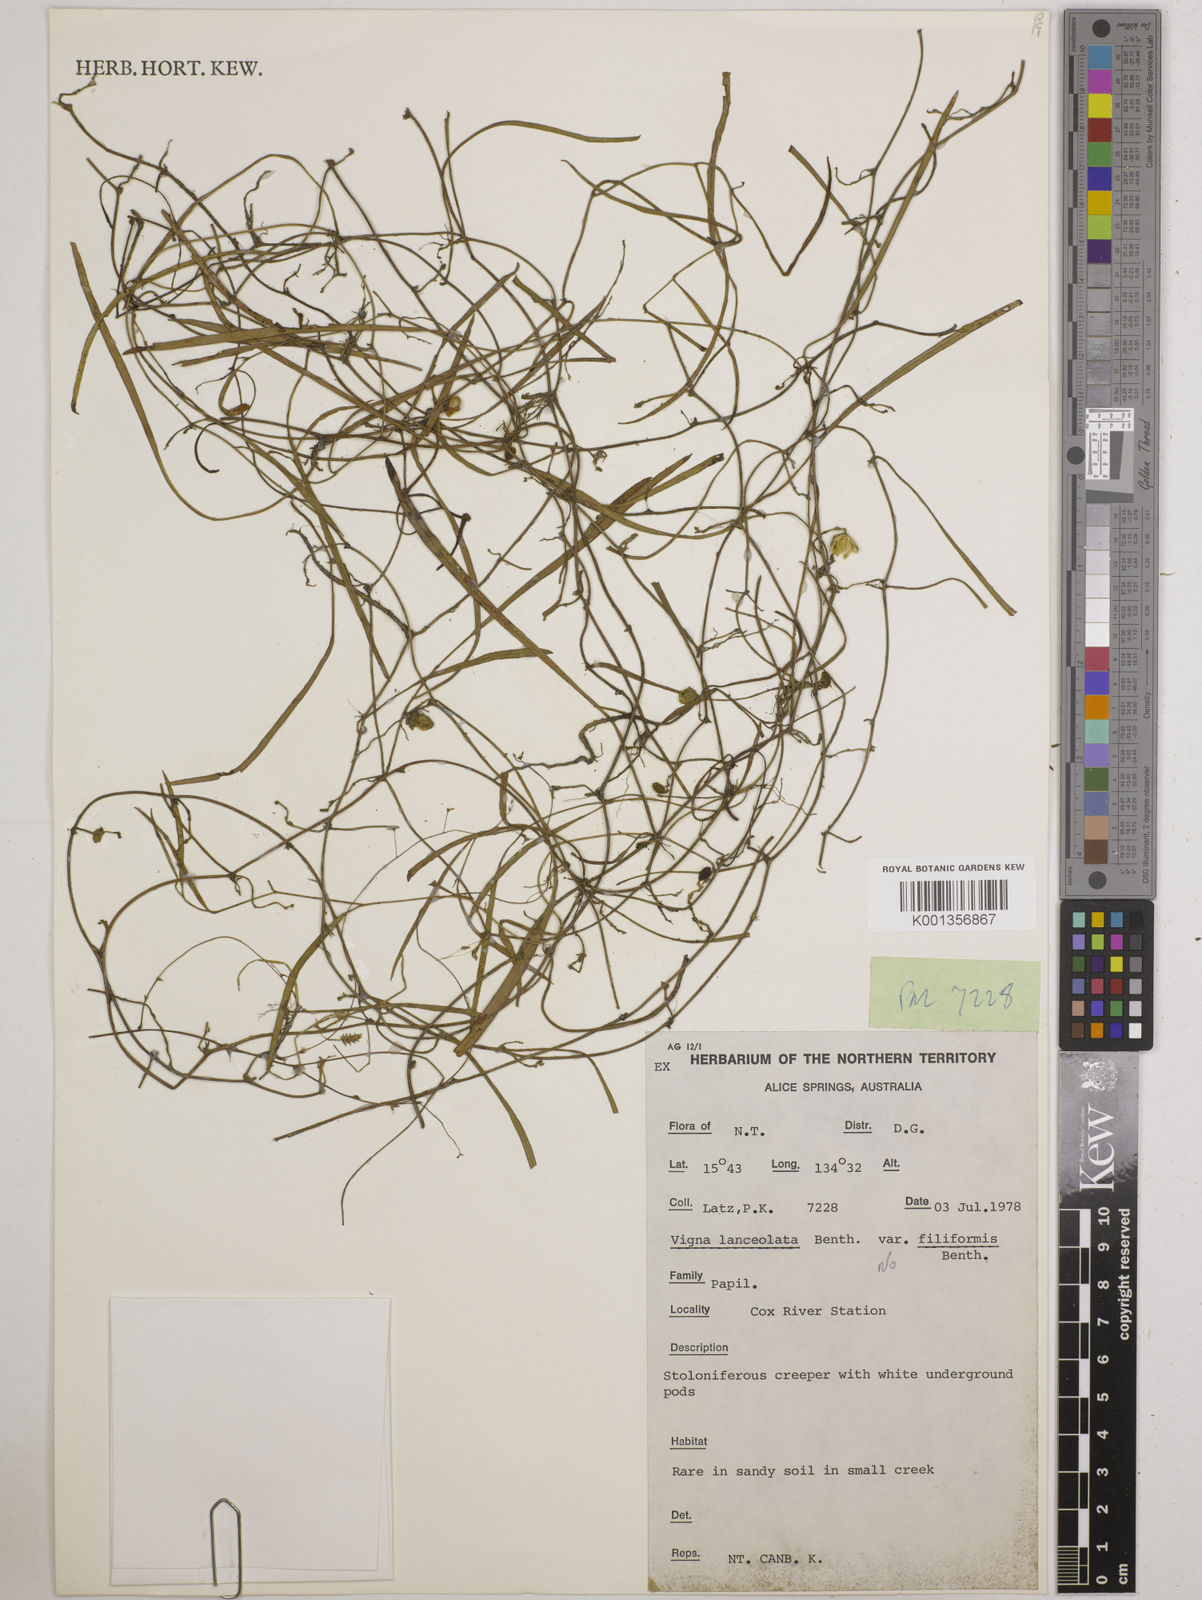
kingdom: Plantae
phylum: Tracheophyta
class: Magnoliopsida
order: Fabales
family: Fabaceae
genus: Vigna
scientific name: Vigna lanceolata
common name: Maloga-bean
